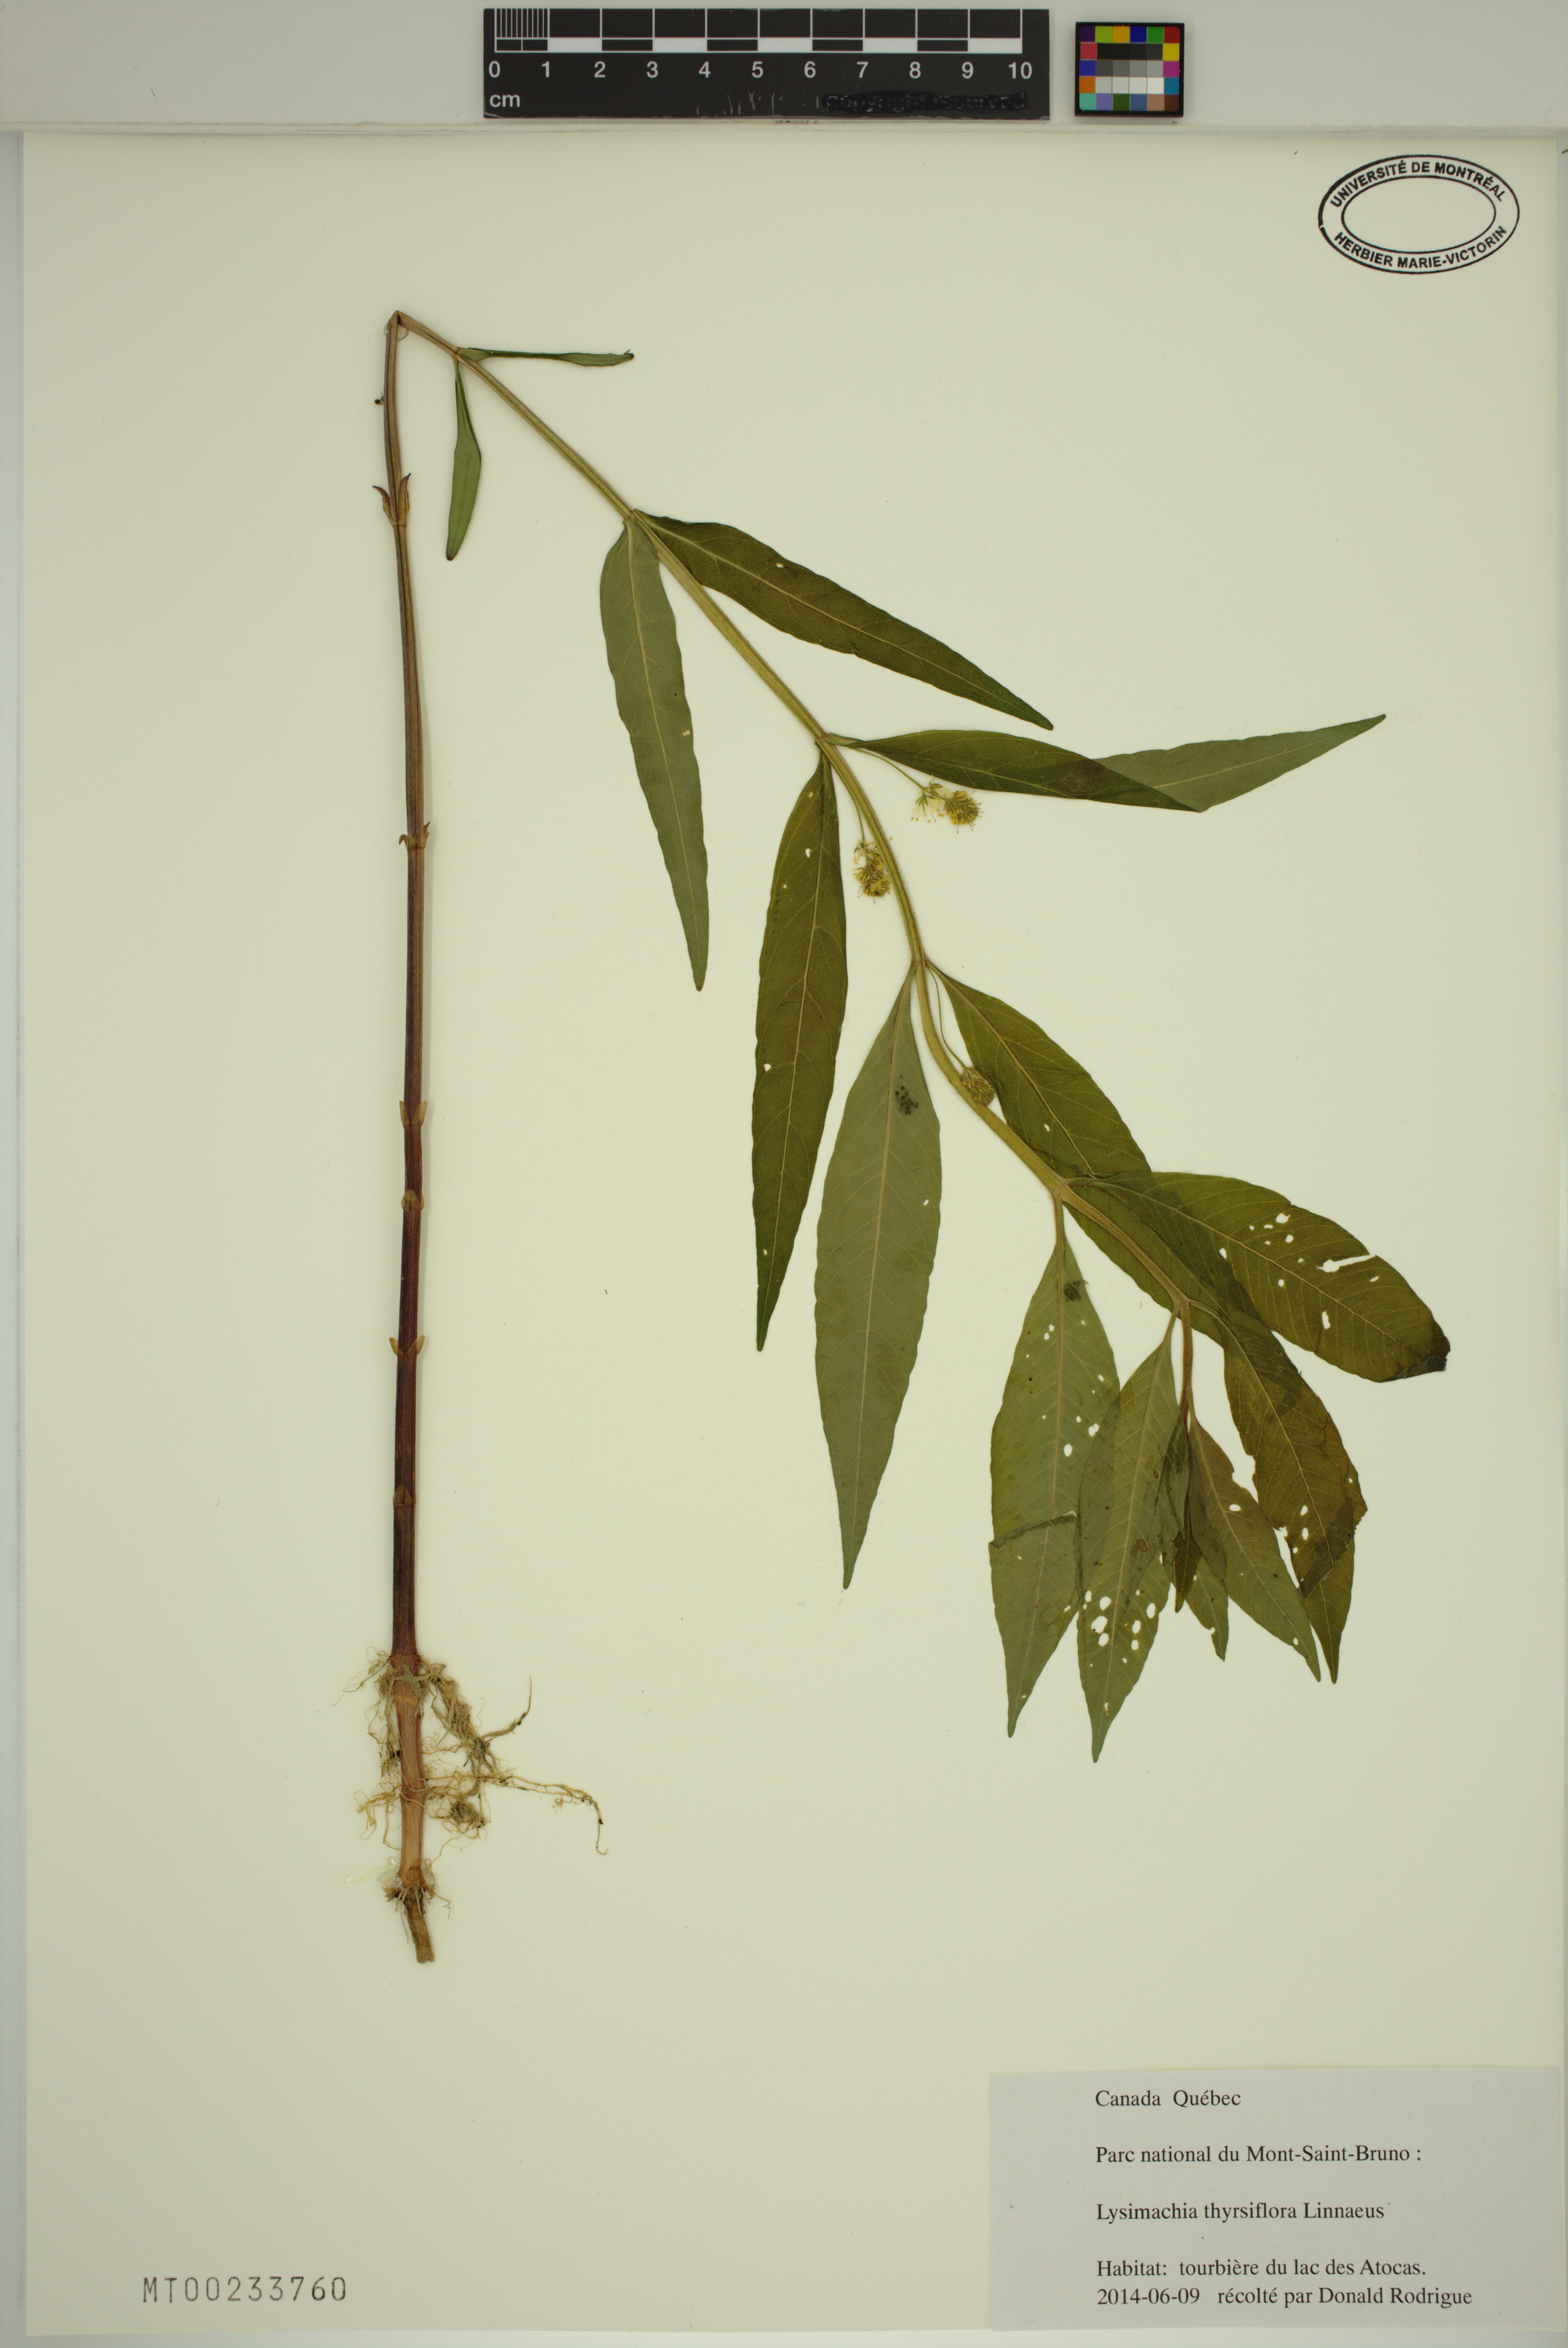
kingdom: Plantae
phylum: Tracheophyta
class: Magnoliopsida
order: Ericales
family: Primulaceae
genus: Lysimachia
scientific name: Lysimachia thyrsiflora
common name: Tufted loosestrife
